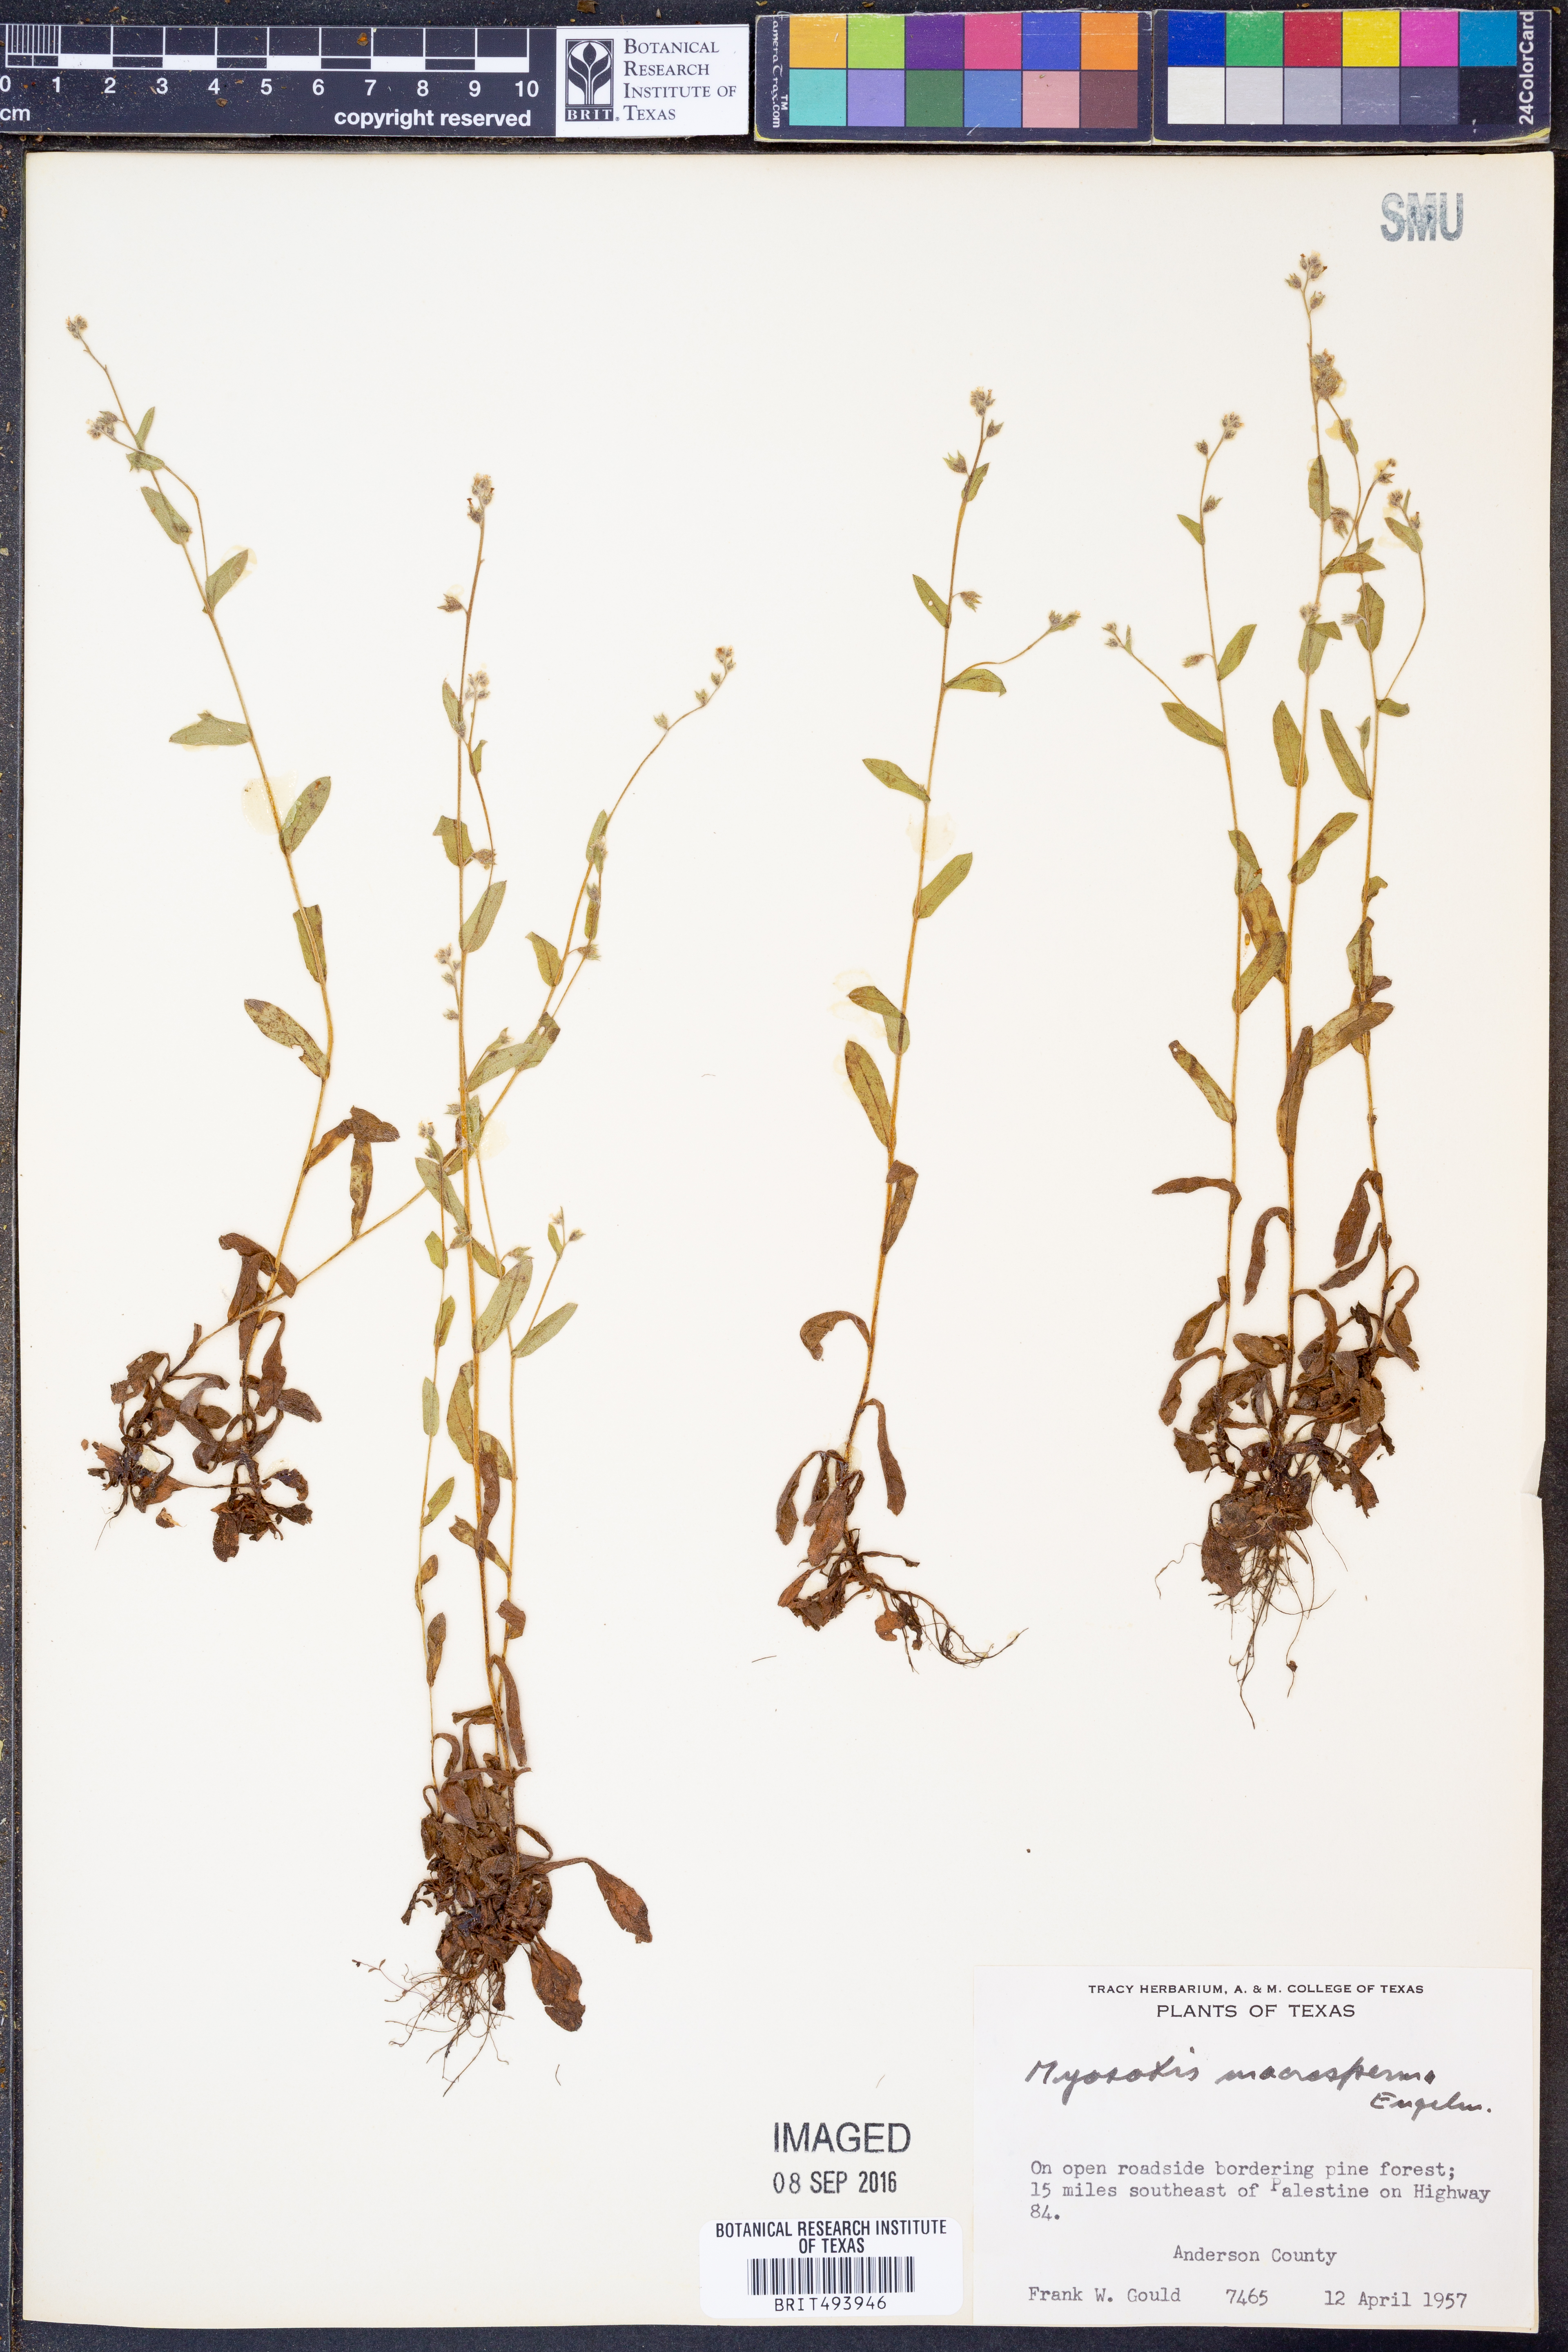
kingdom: Plantae
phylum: Tracheophyta
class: Magnoliopsida
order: Boraginales
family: Boraginaceae
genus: Myosotis
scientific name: Myosotis macrosperma
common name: Large-seed forget-me-not
